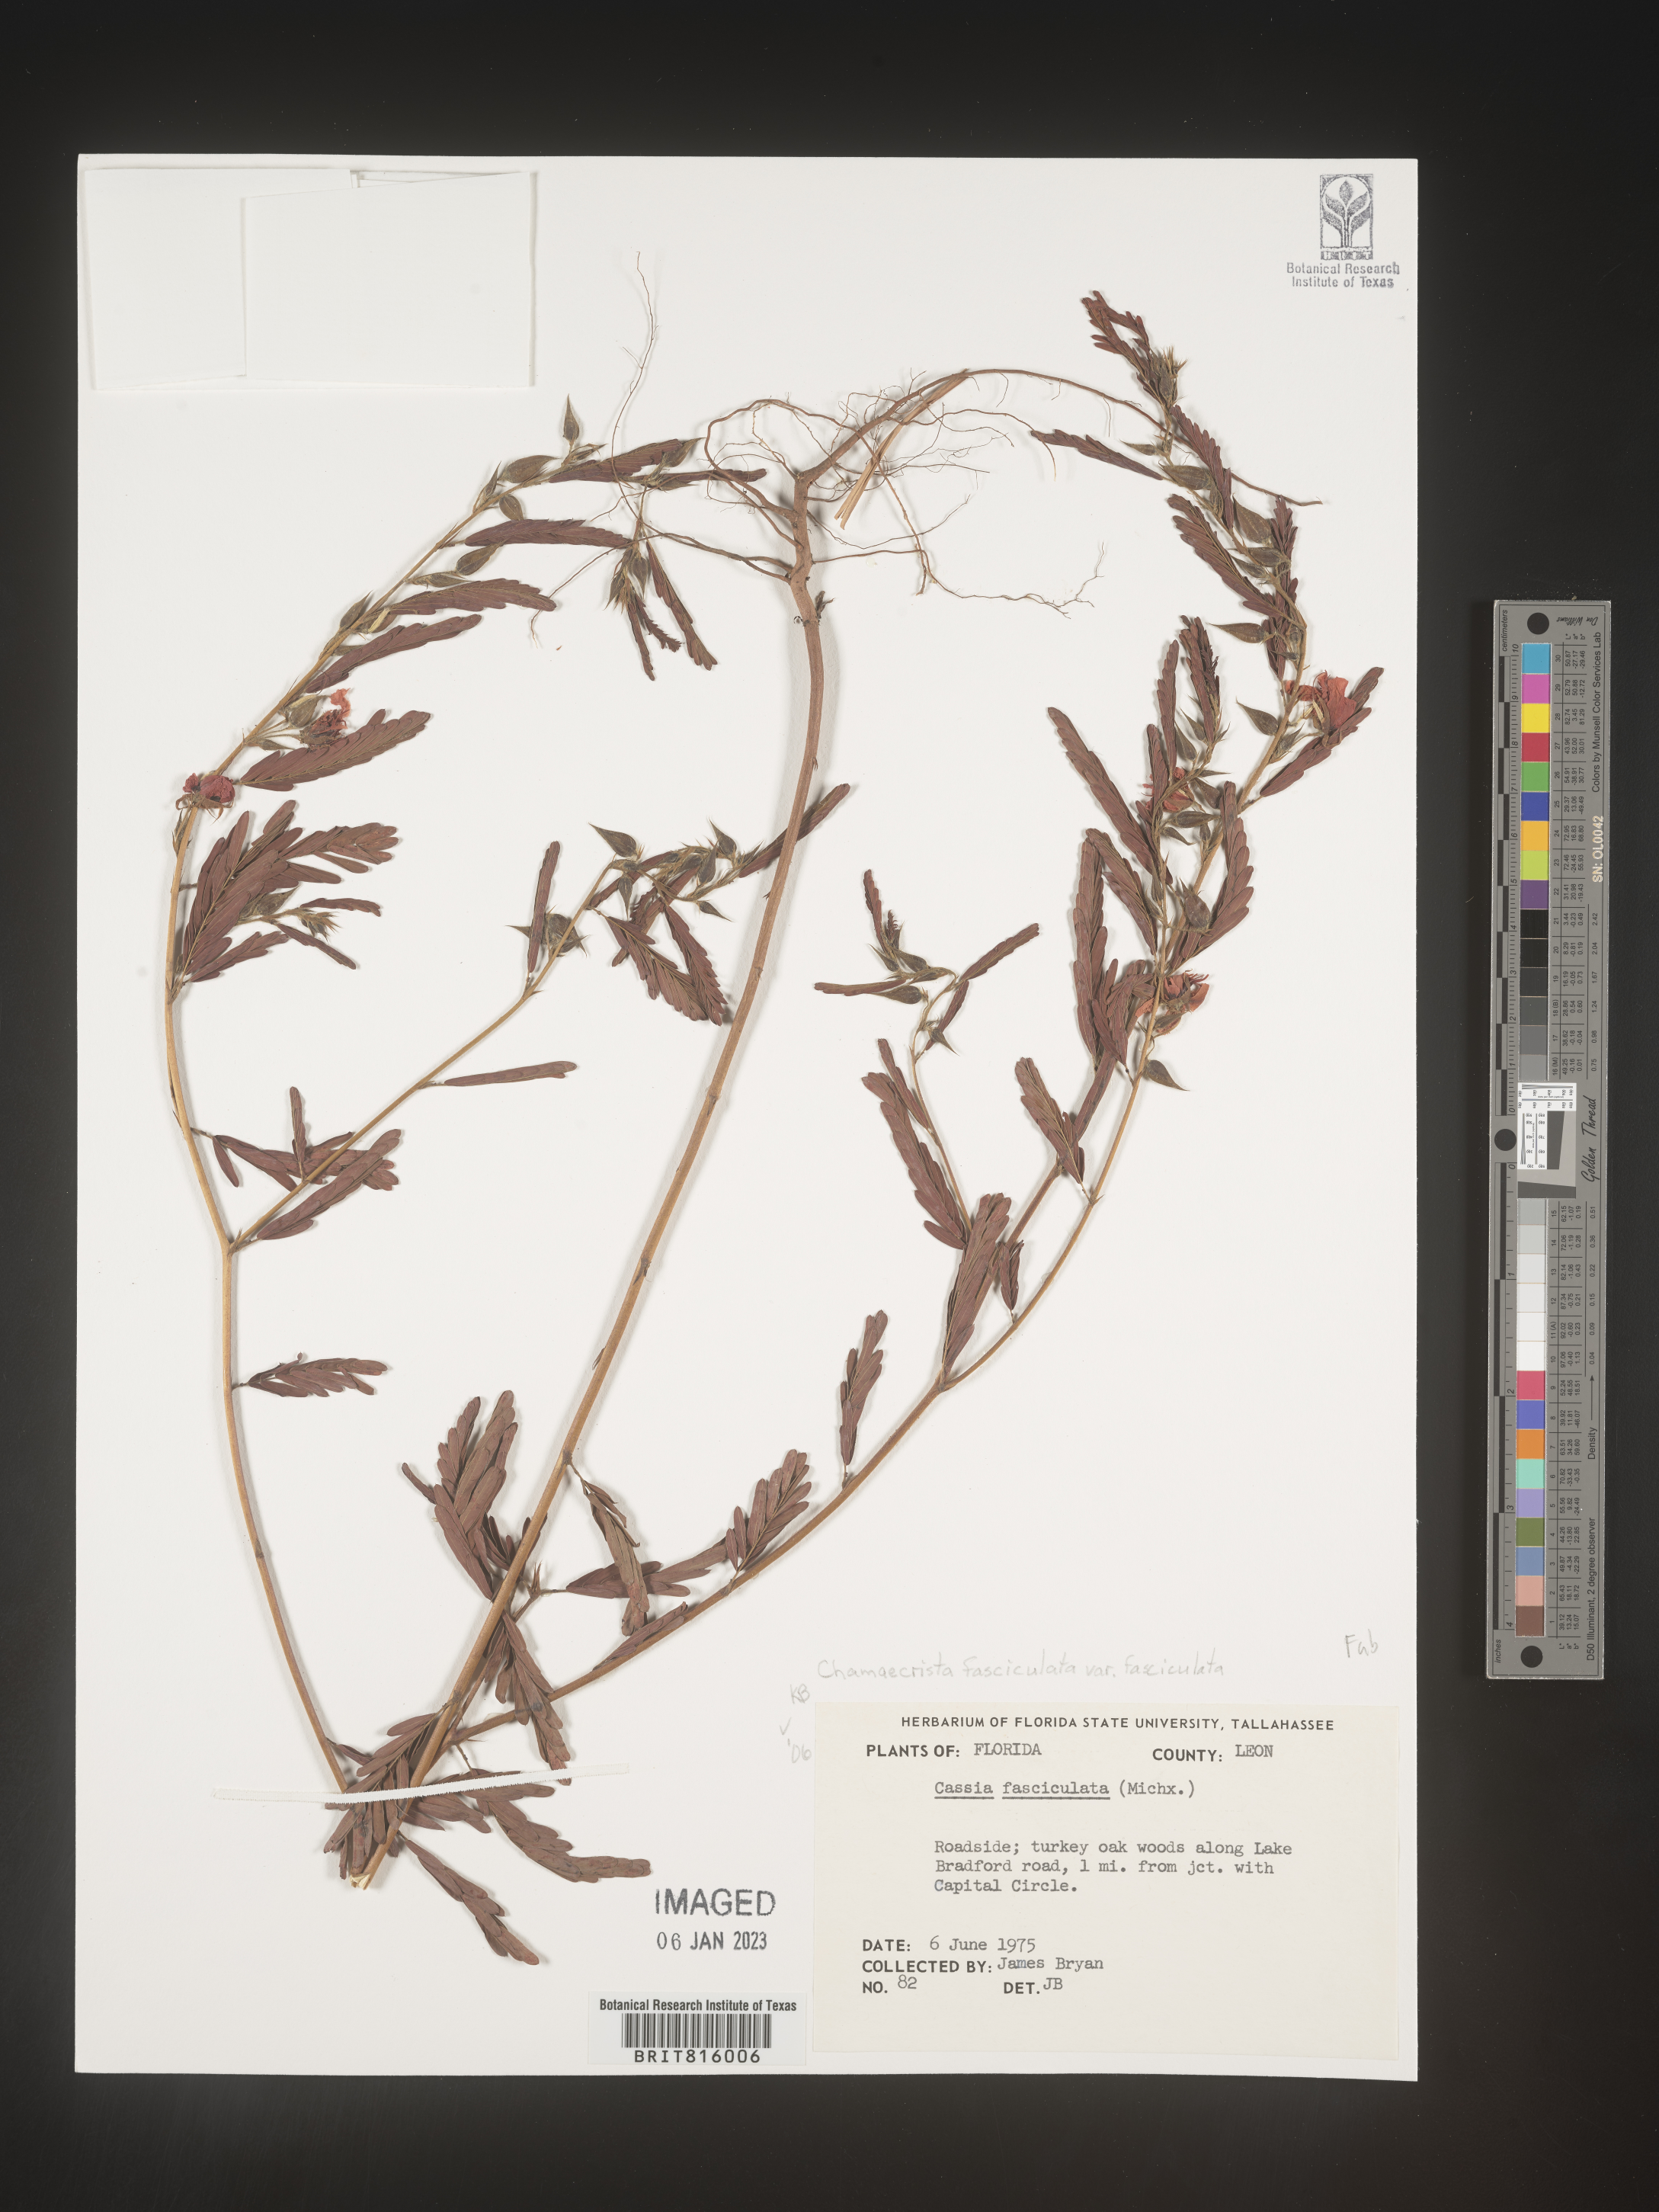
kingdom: Plantae
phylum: Tracheophyta
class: Magnoliopsida
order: Fabales
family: Fabaceae
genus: Chamaecrista
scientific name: Chamaecrista fasciculata
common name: Golden cassia
